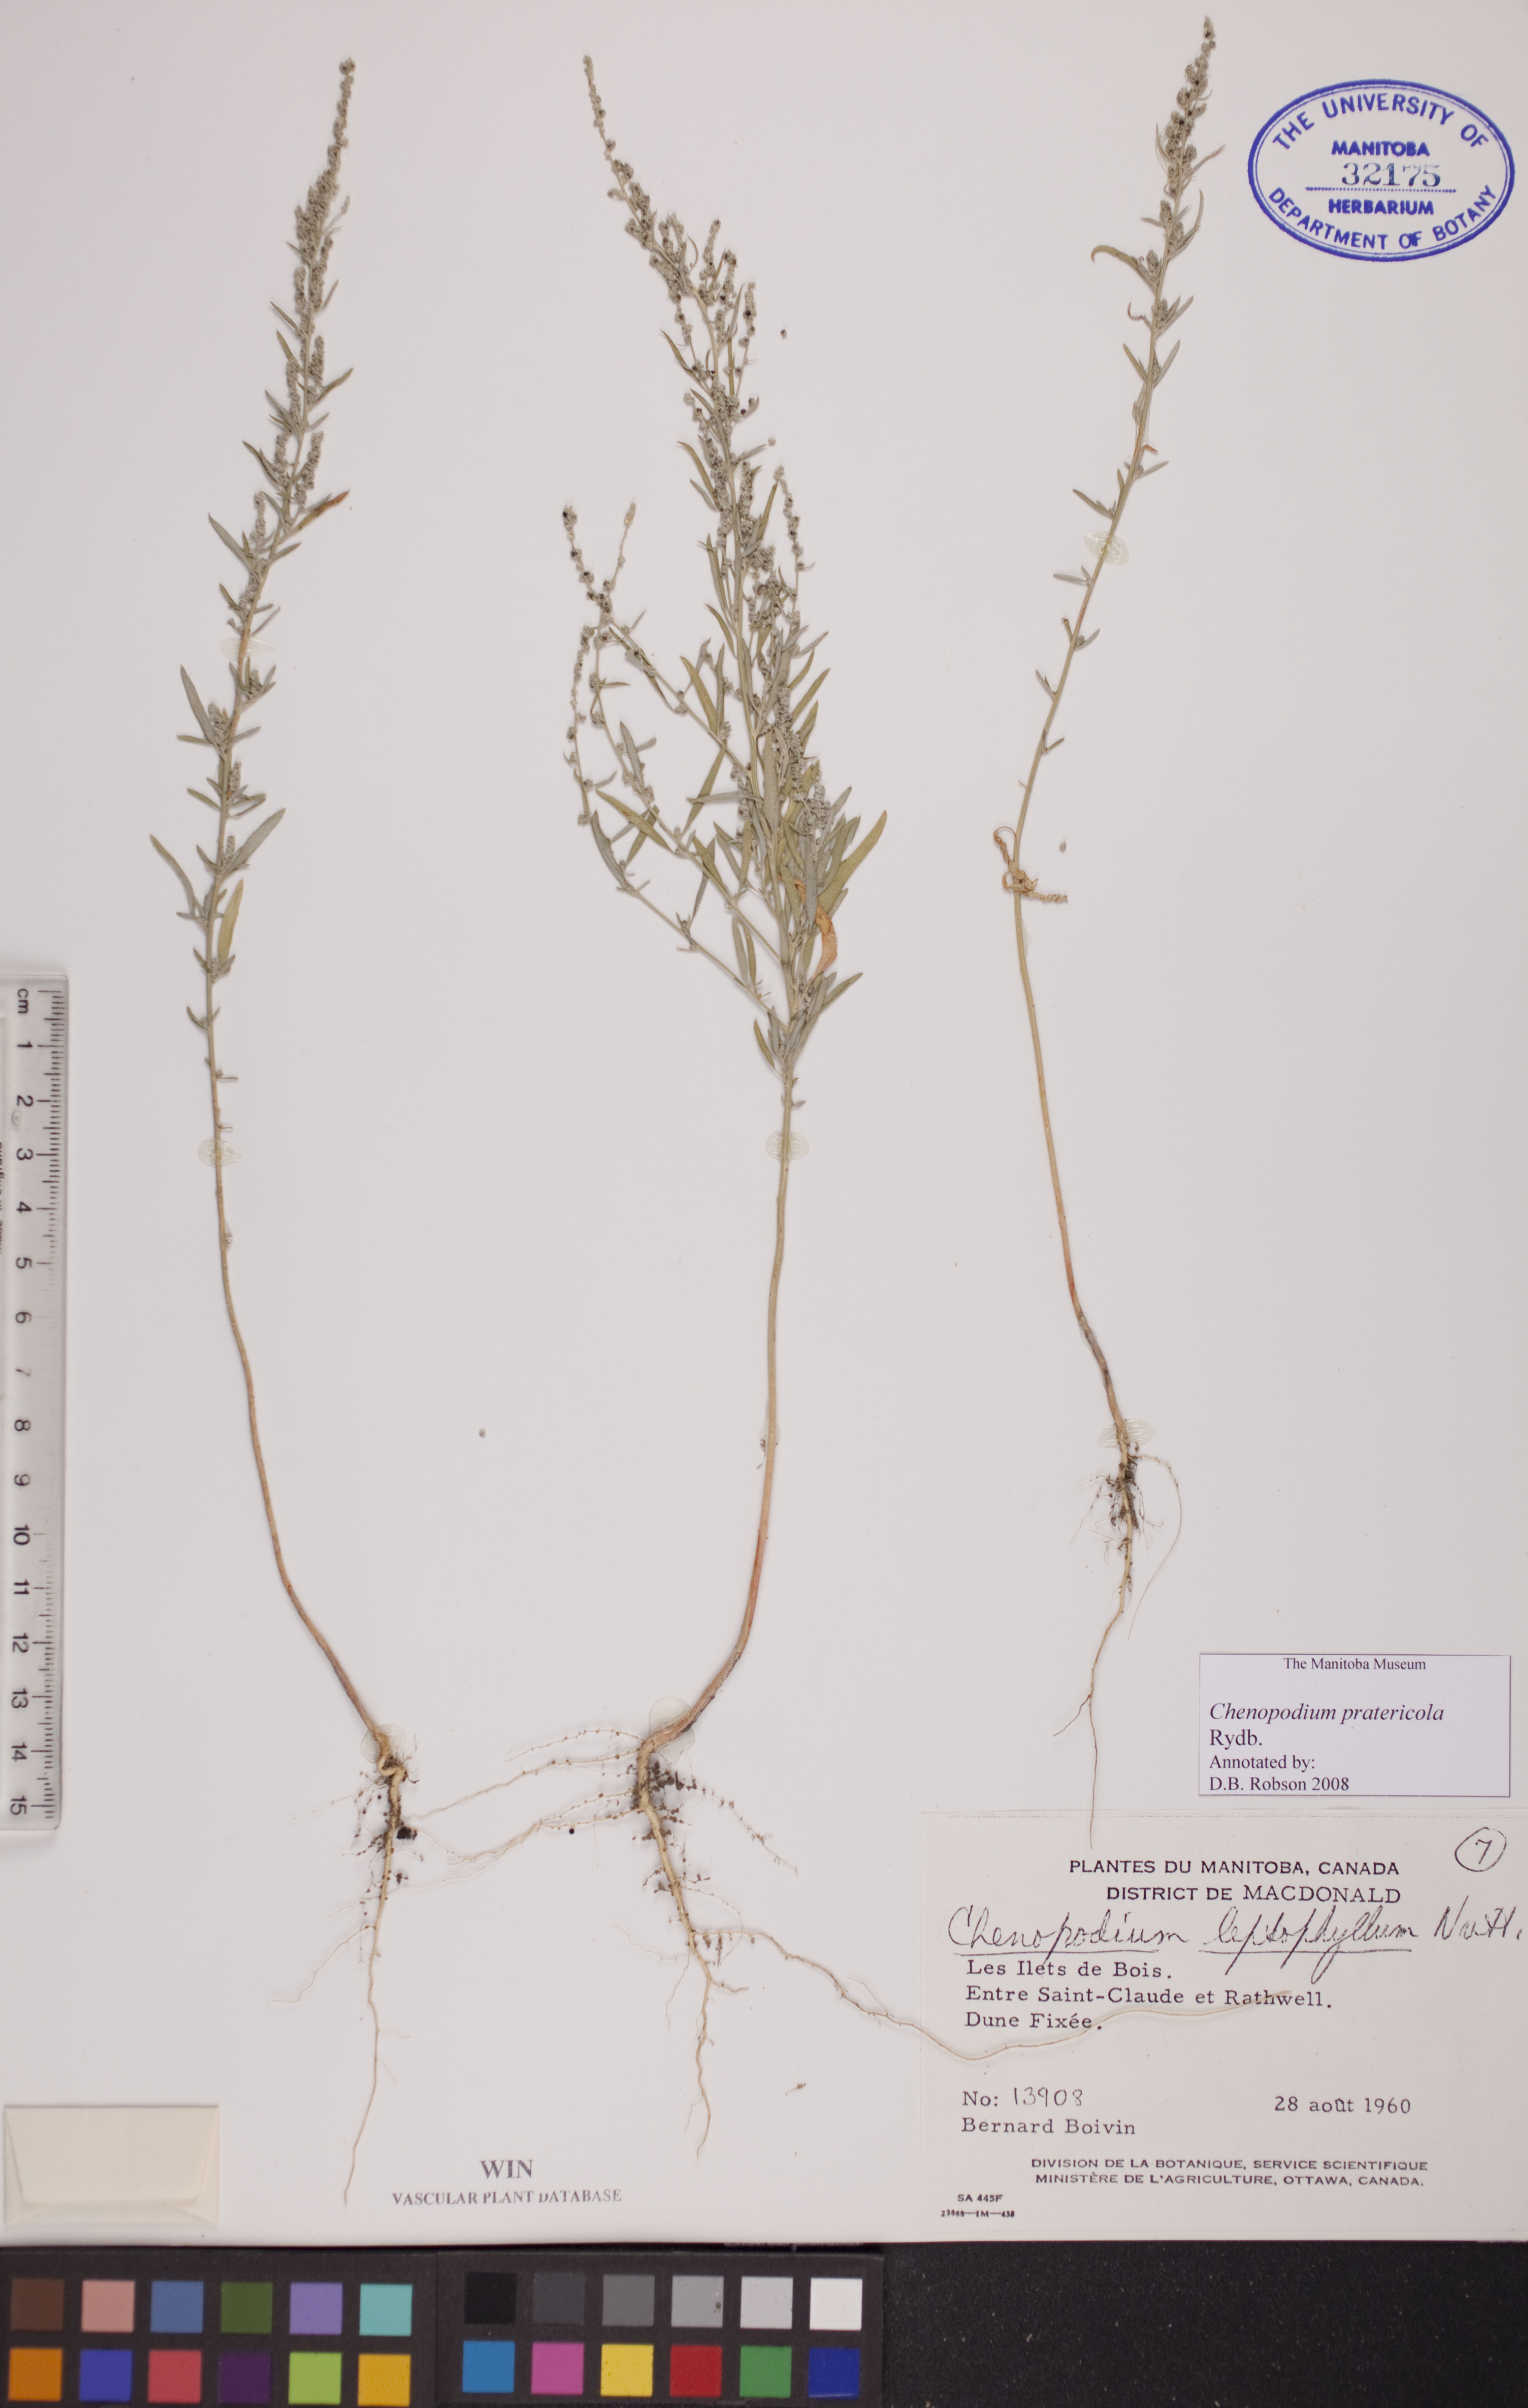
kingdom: Plantae
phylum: Tracheophyta
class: Magnoliopsida
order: Caryophyllales
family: Amaranthaceae
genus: Chenopodium
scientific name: Chenopodium pratericola
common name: Desert goosefoot
